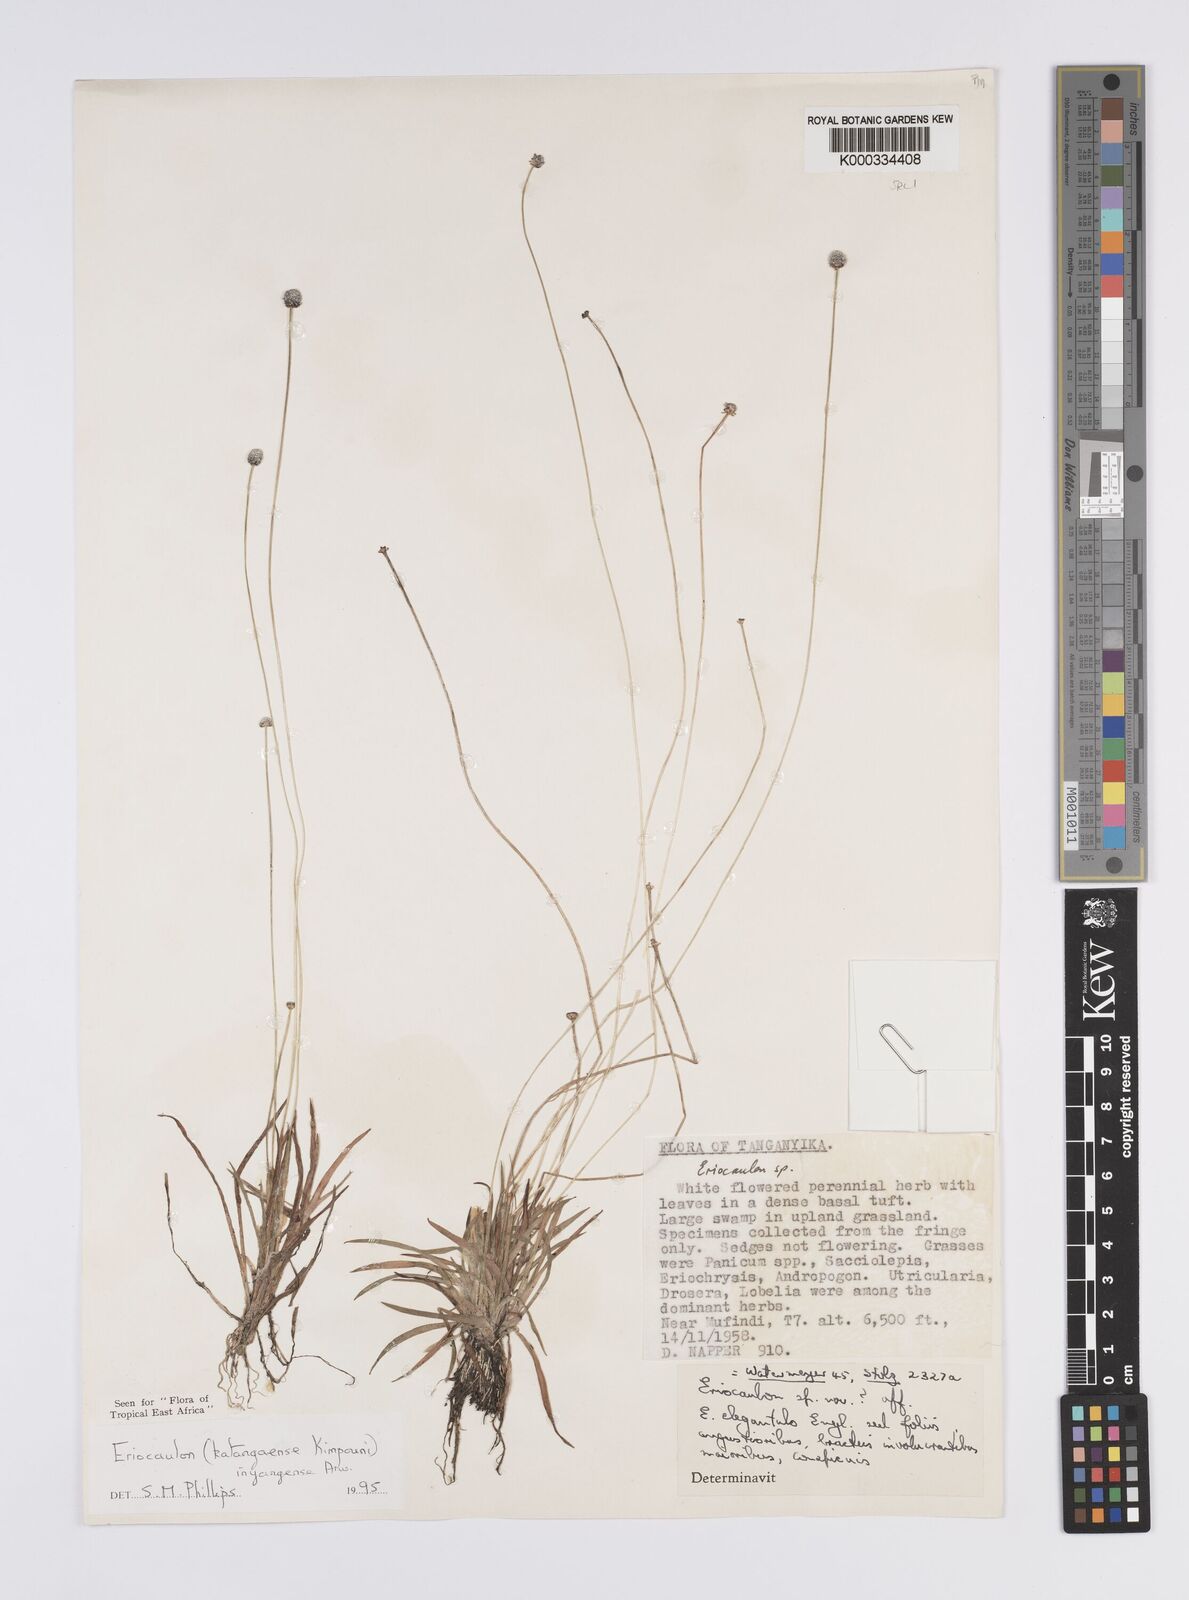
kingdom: Plantae
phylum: Tracheophyta
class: Liliopsida
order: Poales
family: Eriocaulaceae
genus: Eriocaulon
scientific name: Eriocaulon inyangense
